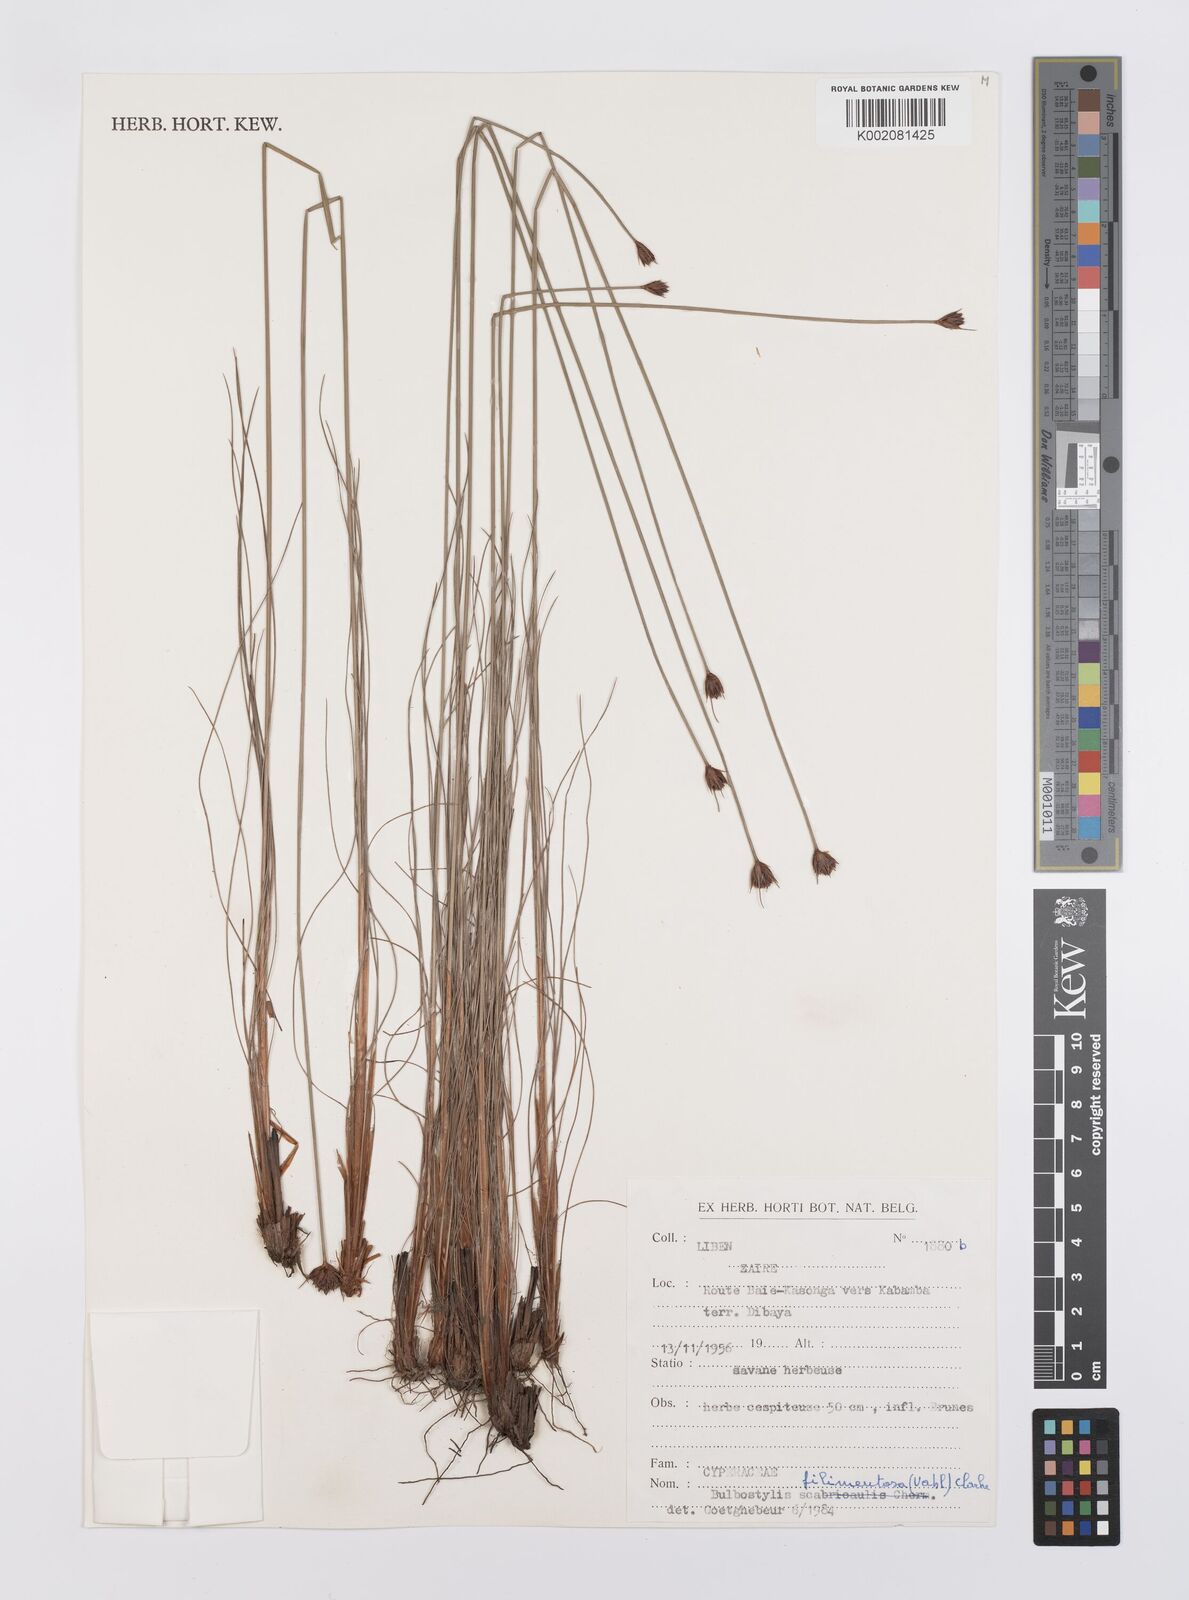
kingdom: Plantae
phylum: Tracheophyta
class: Liliopsida
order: Poales
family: Cyperaceae
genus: Bulbostylis
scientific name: Bulbostylis filamentosa
